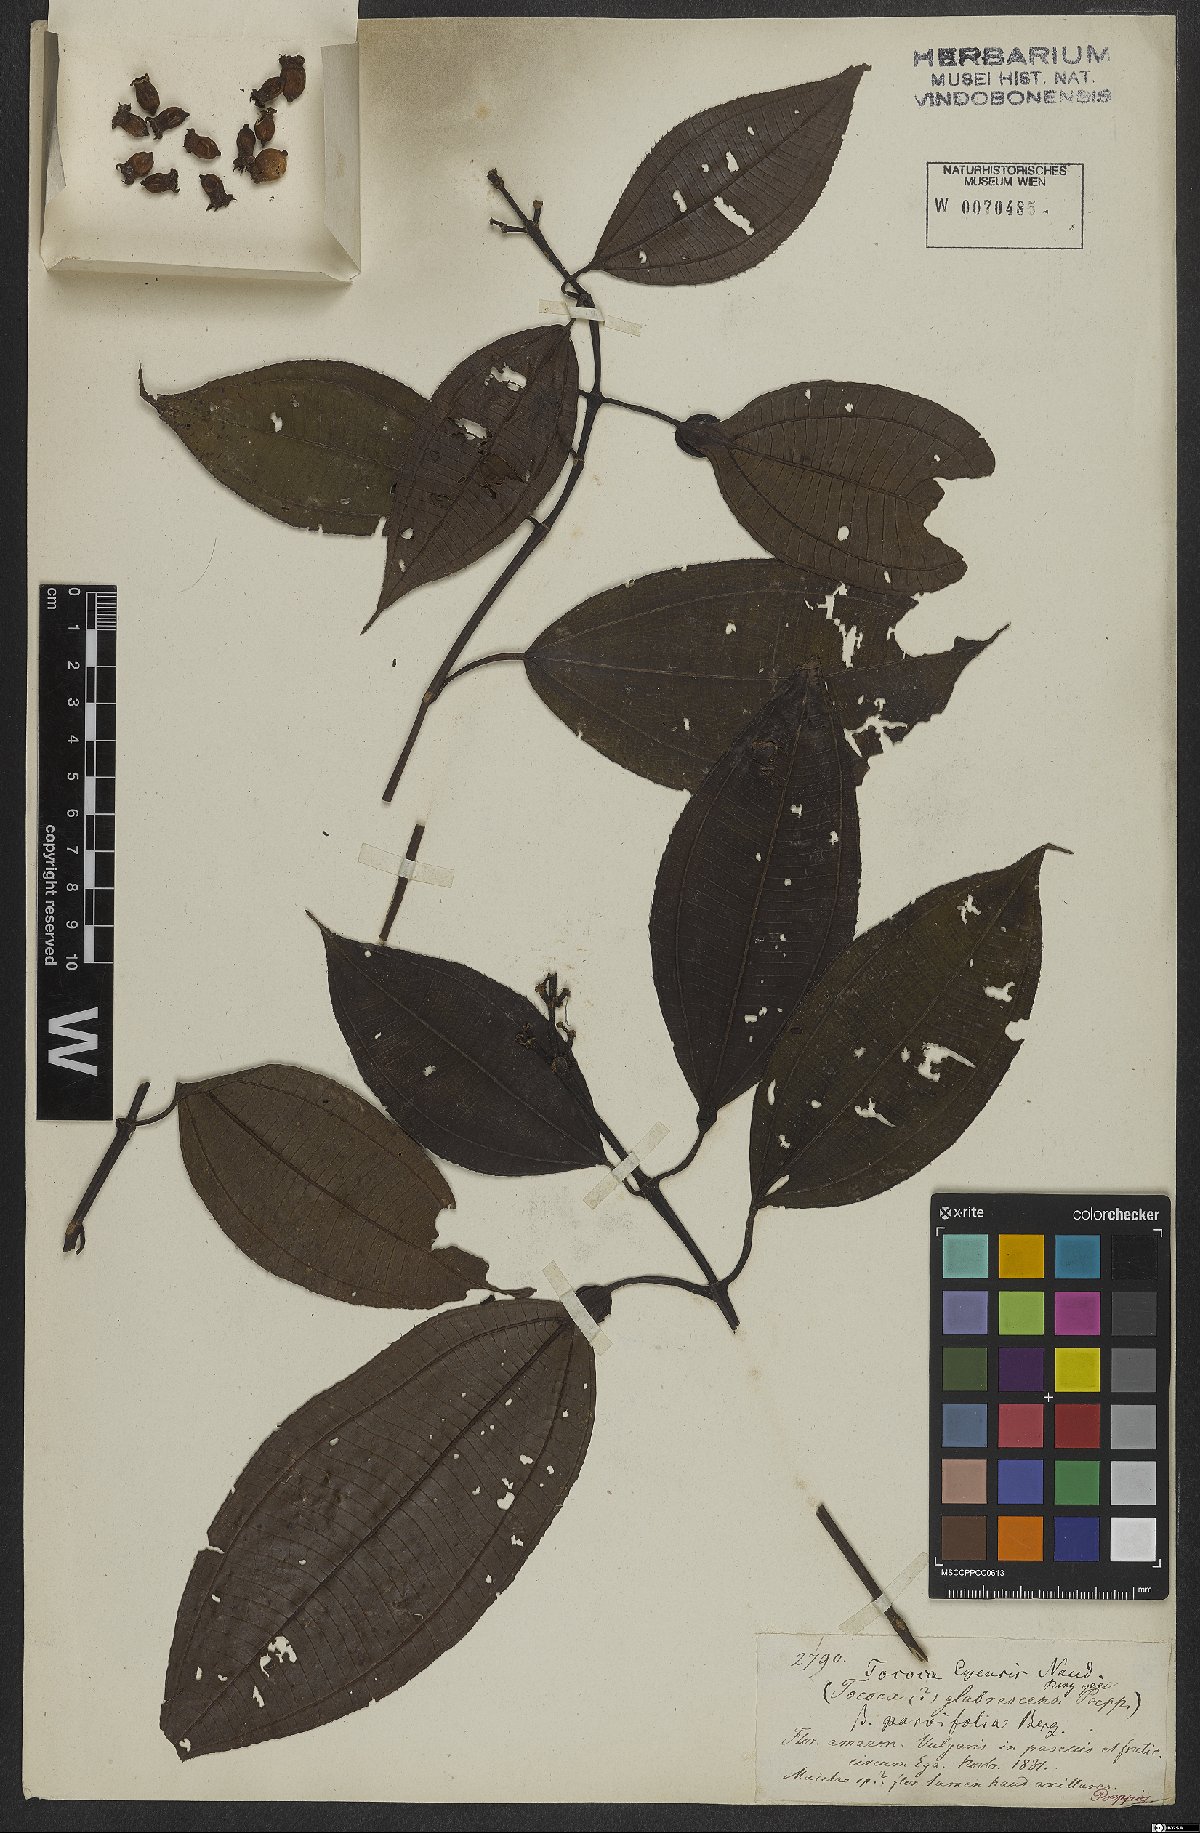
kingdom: Plantae
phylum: Tracheophyta
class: Magnoliopsida
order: Myrtales
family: Melastomataceae
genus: Miconia
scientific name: Miconia tococoronata
